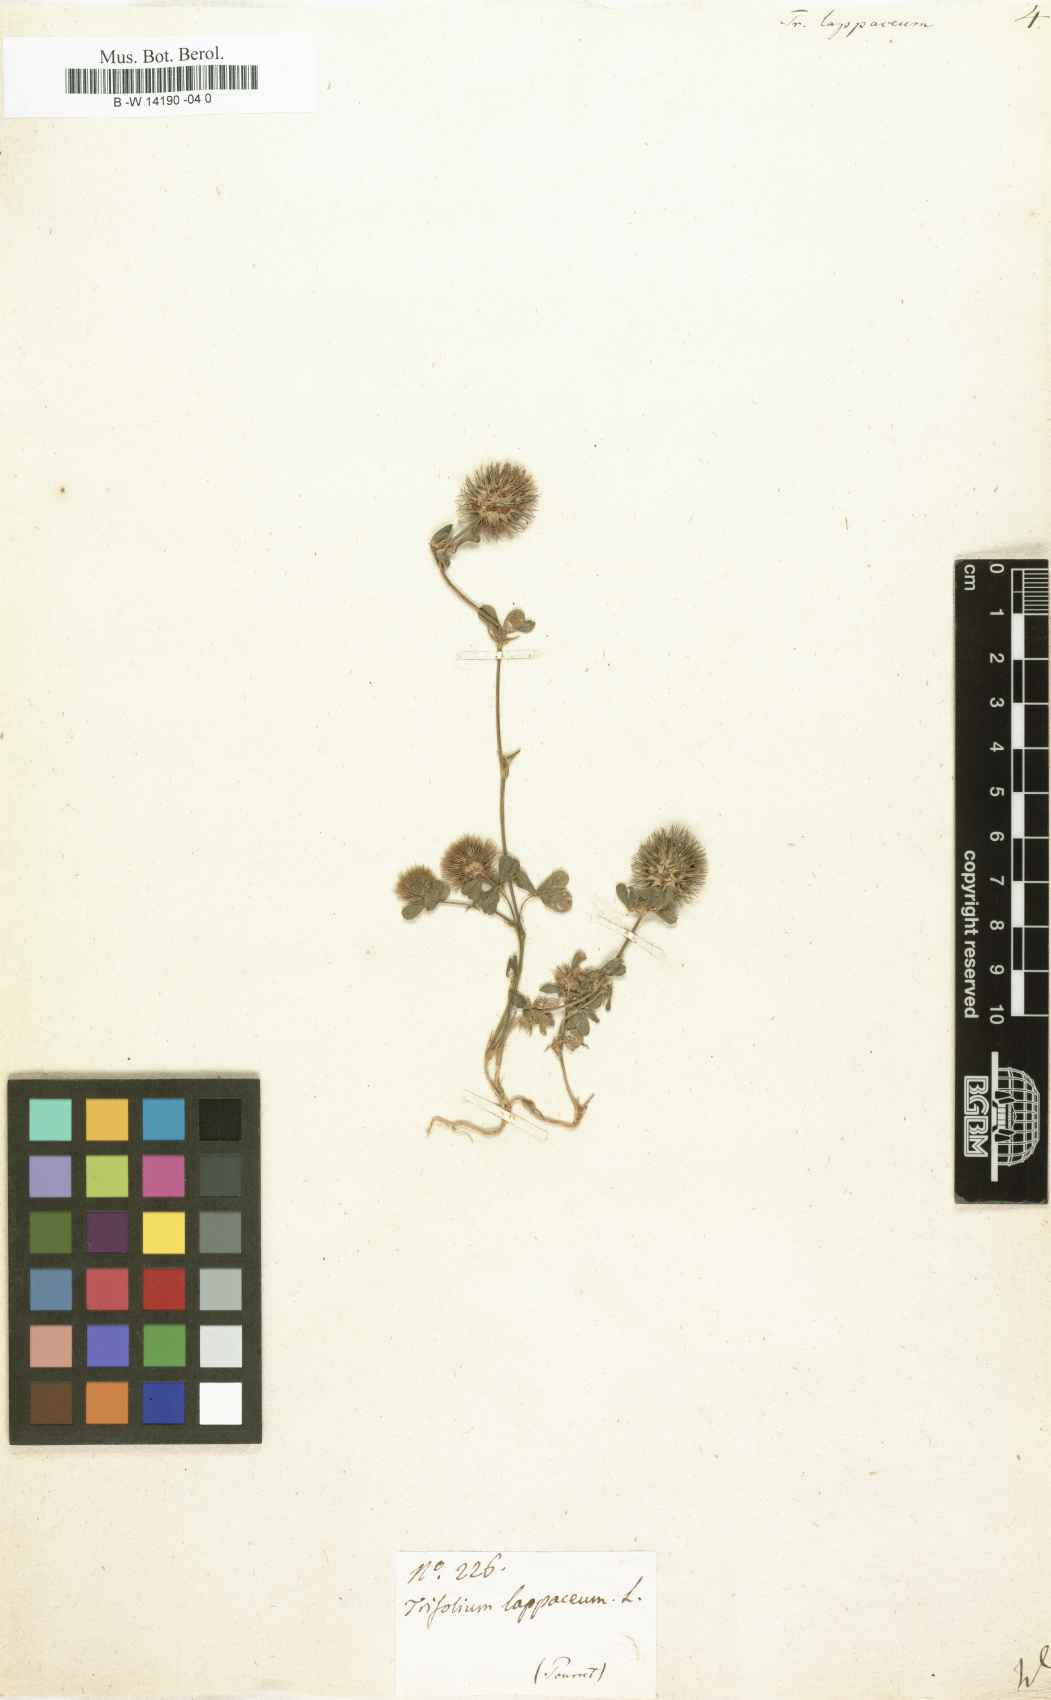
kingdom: Plantae
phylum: Tracheophyta
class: Magnoliopsida
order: Fabales
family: Fabaceae
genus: Trifolium
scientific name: Trifolium lappaceum
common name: Bur clover
